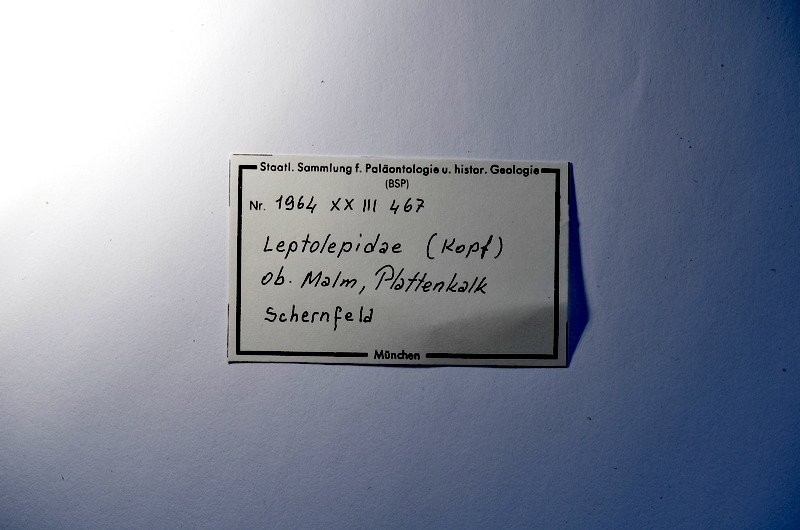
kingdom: Animalia
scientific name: Animalia
